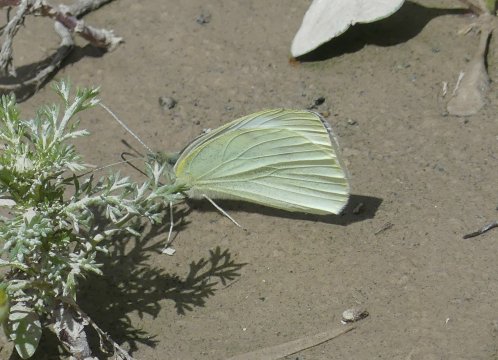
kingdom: Animalia
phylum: Arthropoda
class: Insecta
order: Lepidoptera
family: Pieridae
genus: Pieris
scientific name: Pieris rapae
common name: Cabbage White
